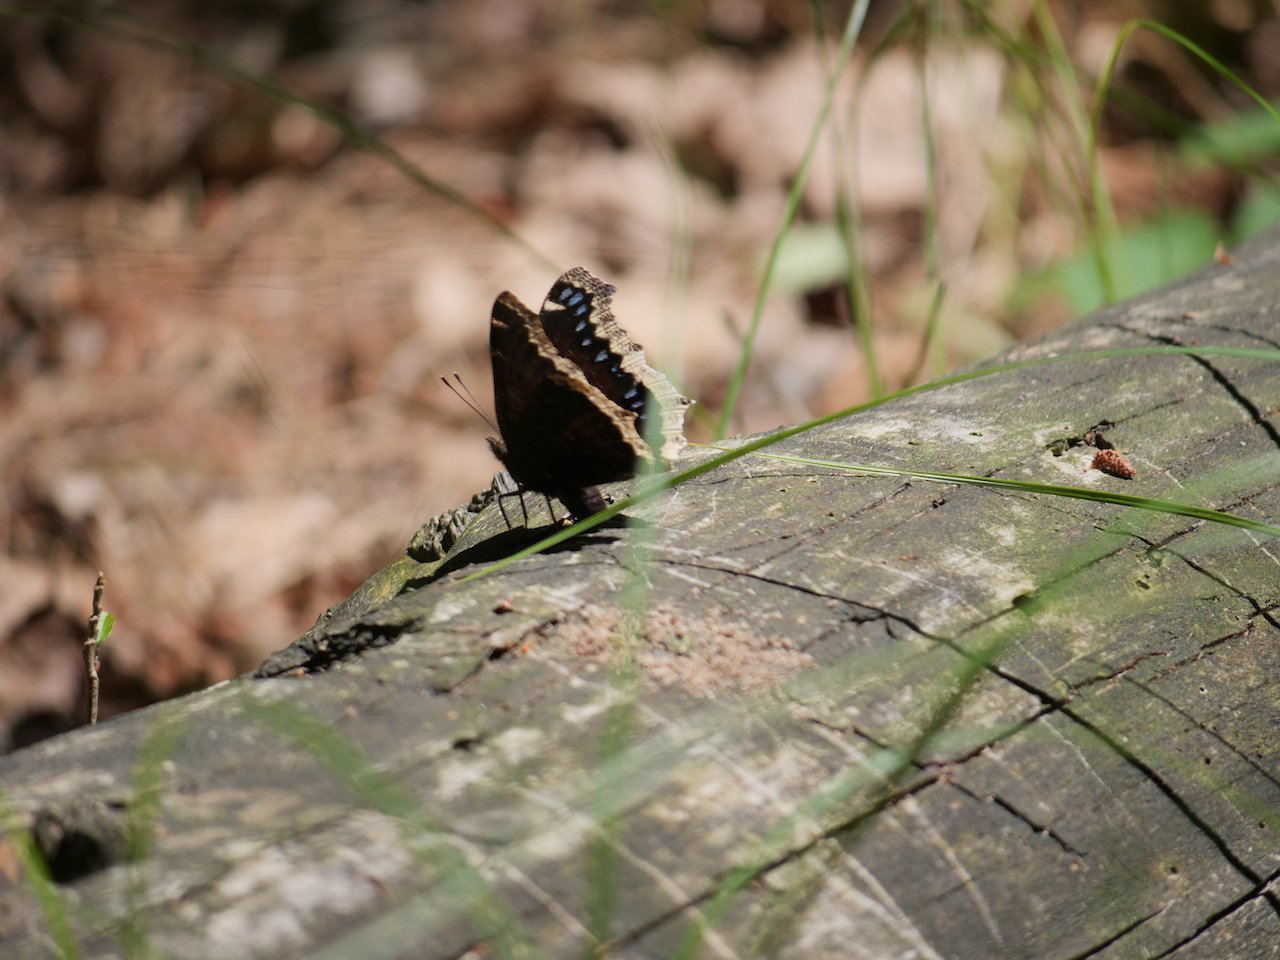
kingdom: Animalia
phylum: Arthropoda
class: Insecta
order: Lepidoptera
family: Nymphalidae
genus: Nymphalis
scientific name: Nymphalis antiopa
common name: Mourning Cloak
